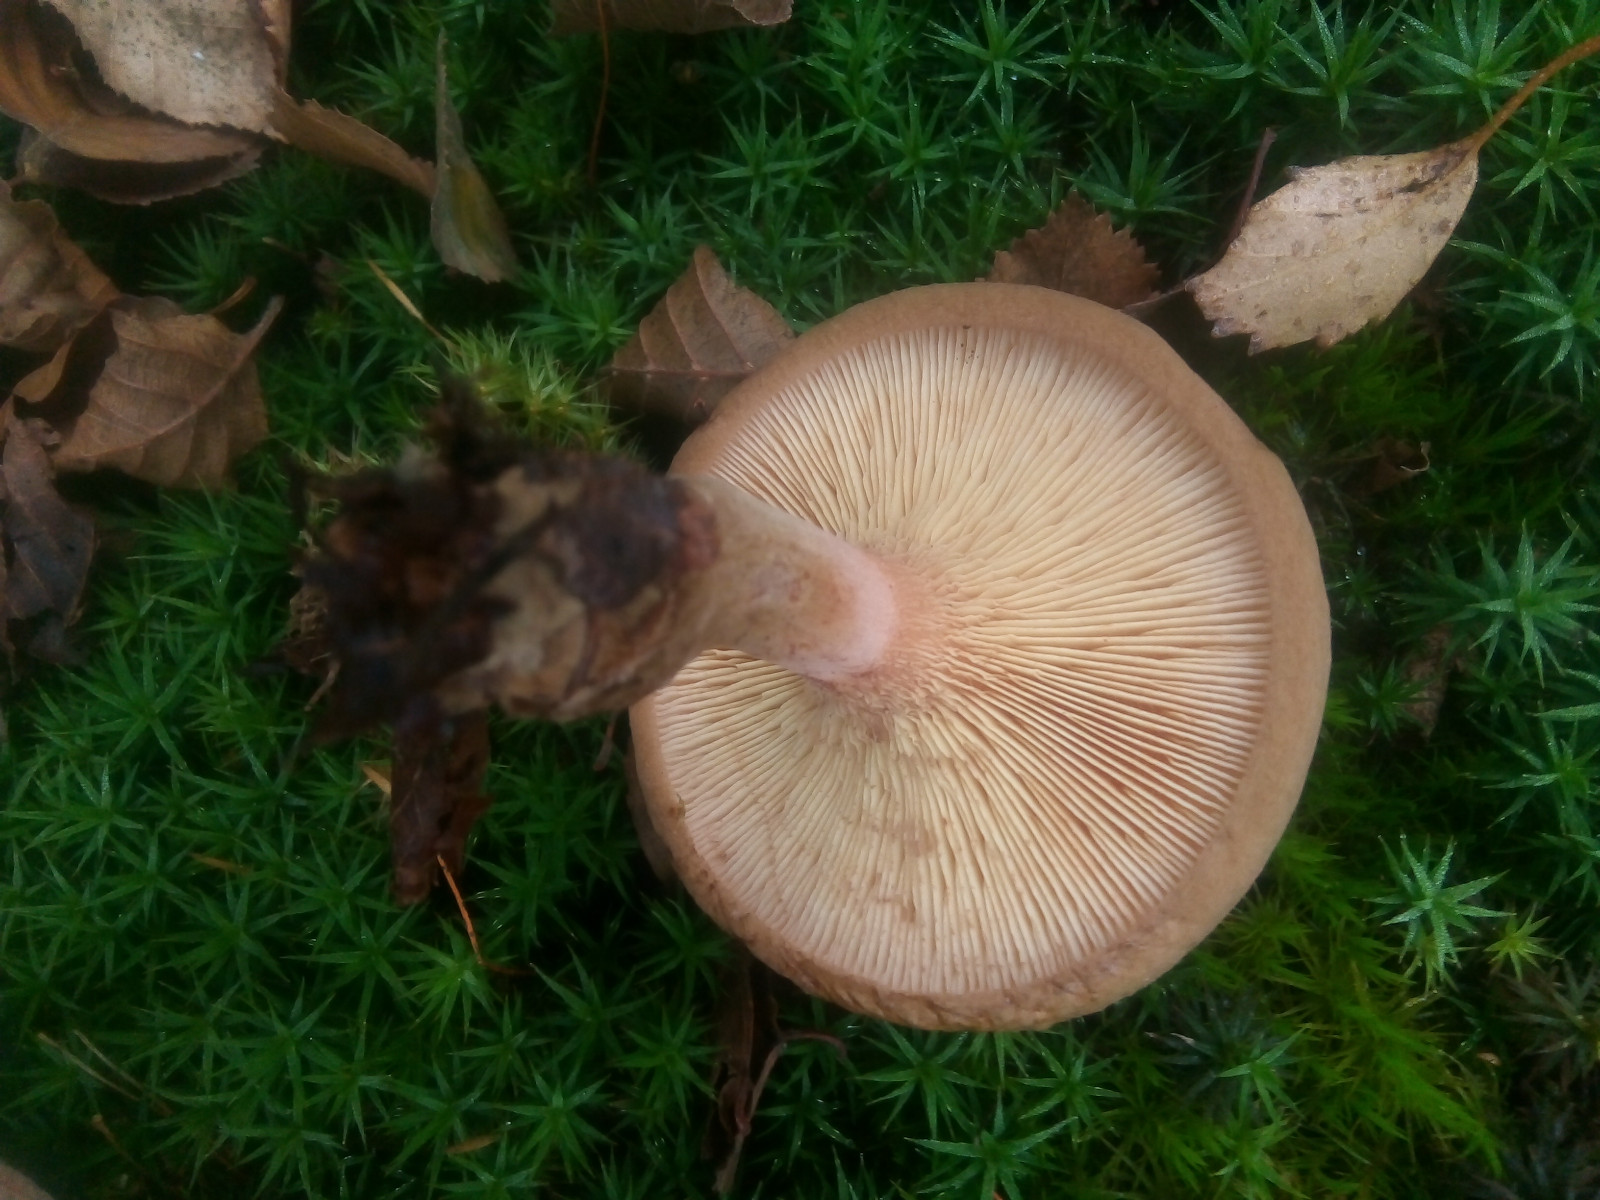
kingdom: Fungi
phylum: Basidiomycota
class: Agaricomycetes
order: Boletales
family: Paxillaceae
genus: Paxillus
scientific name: Paxillus involutus
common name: almindelig netbladhat
